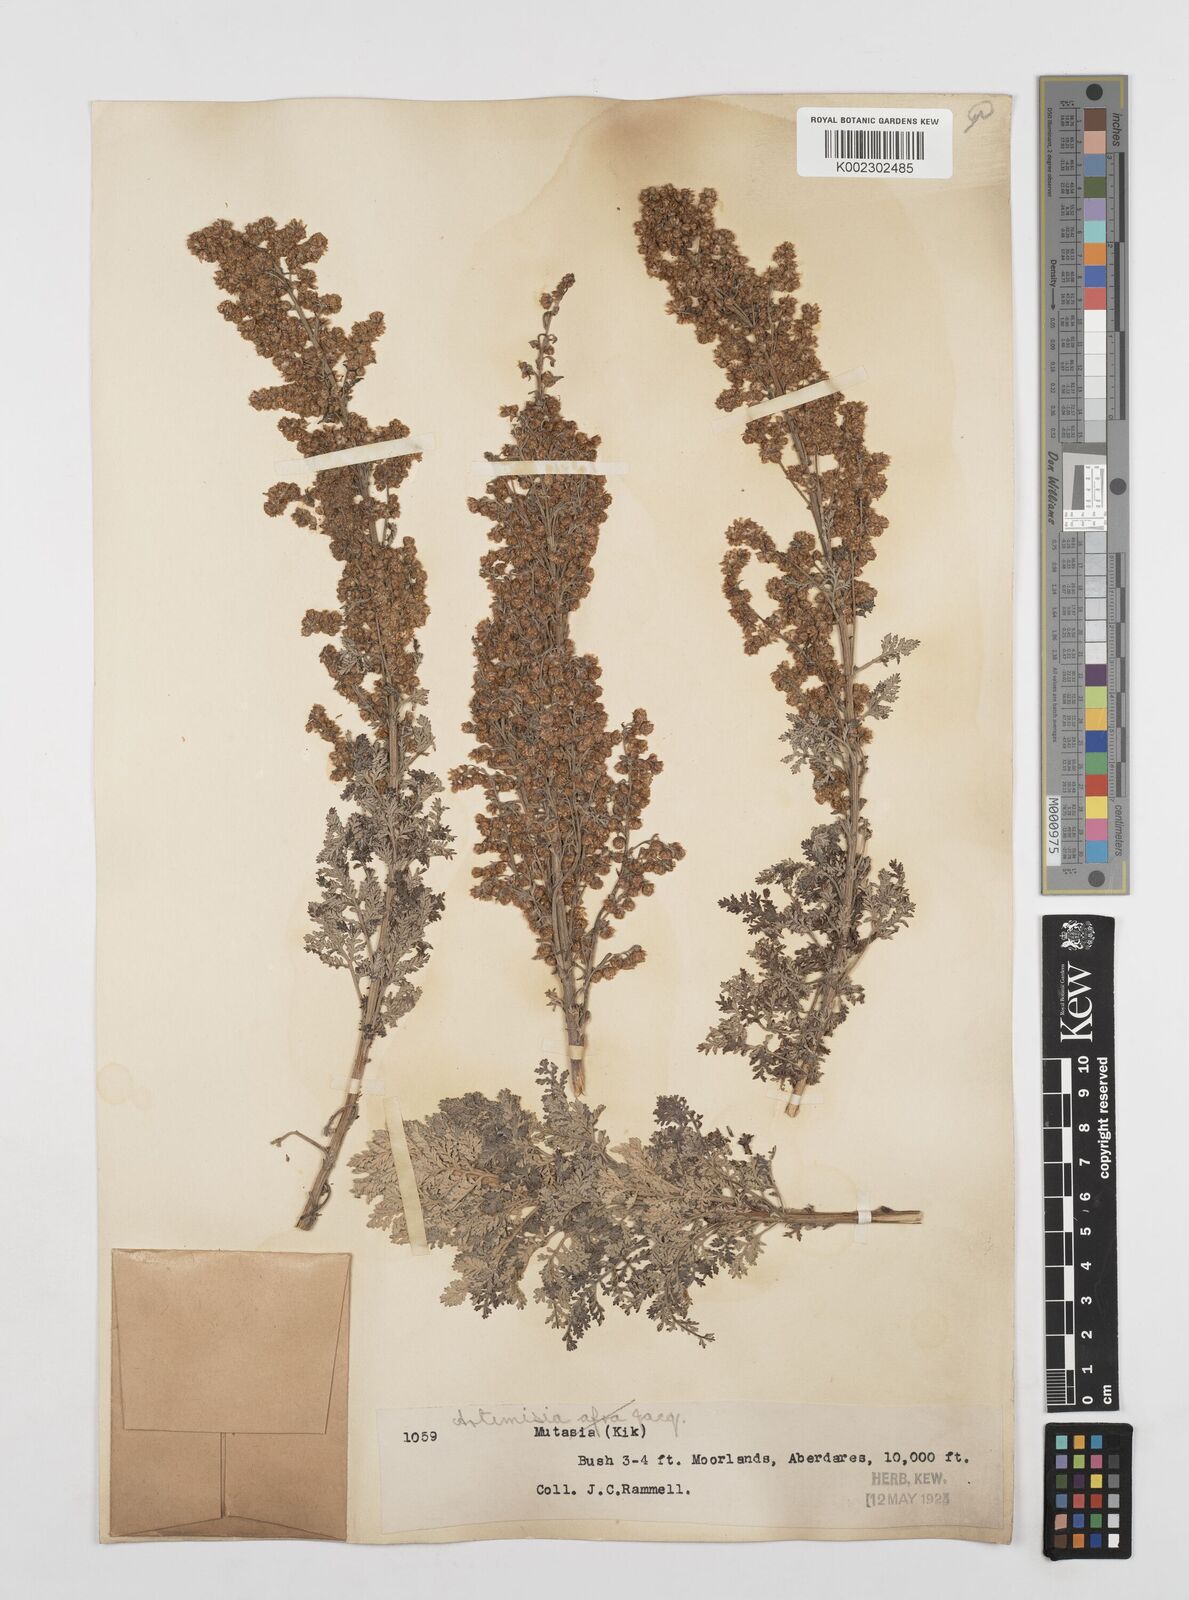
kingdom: Plantae
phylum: Tracheophyta
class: Magnoliopsida
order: Asterales
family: Asteraceae
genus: Artemisia
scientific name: Artemisia afra
